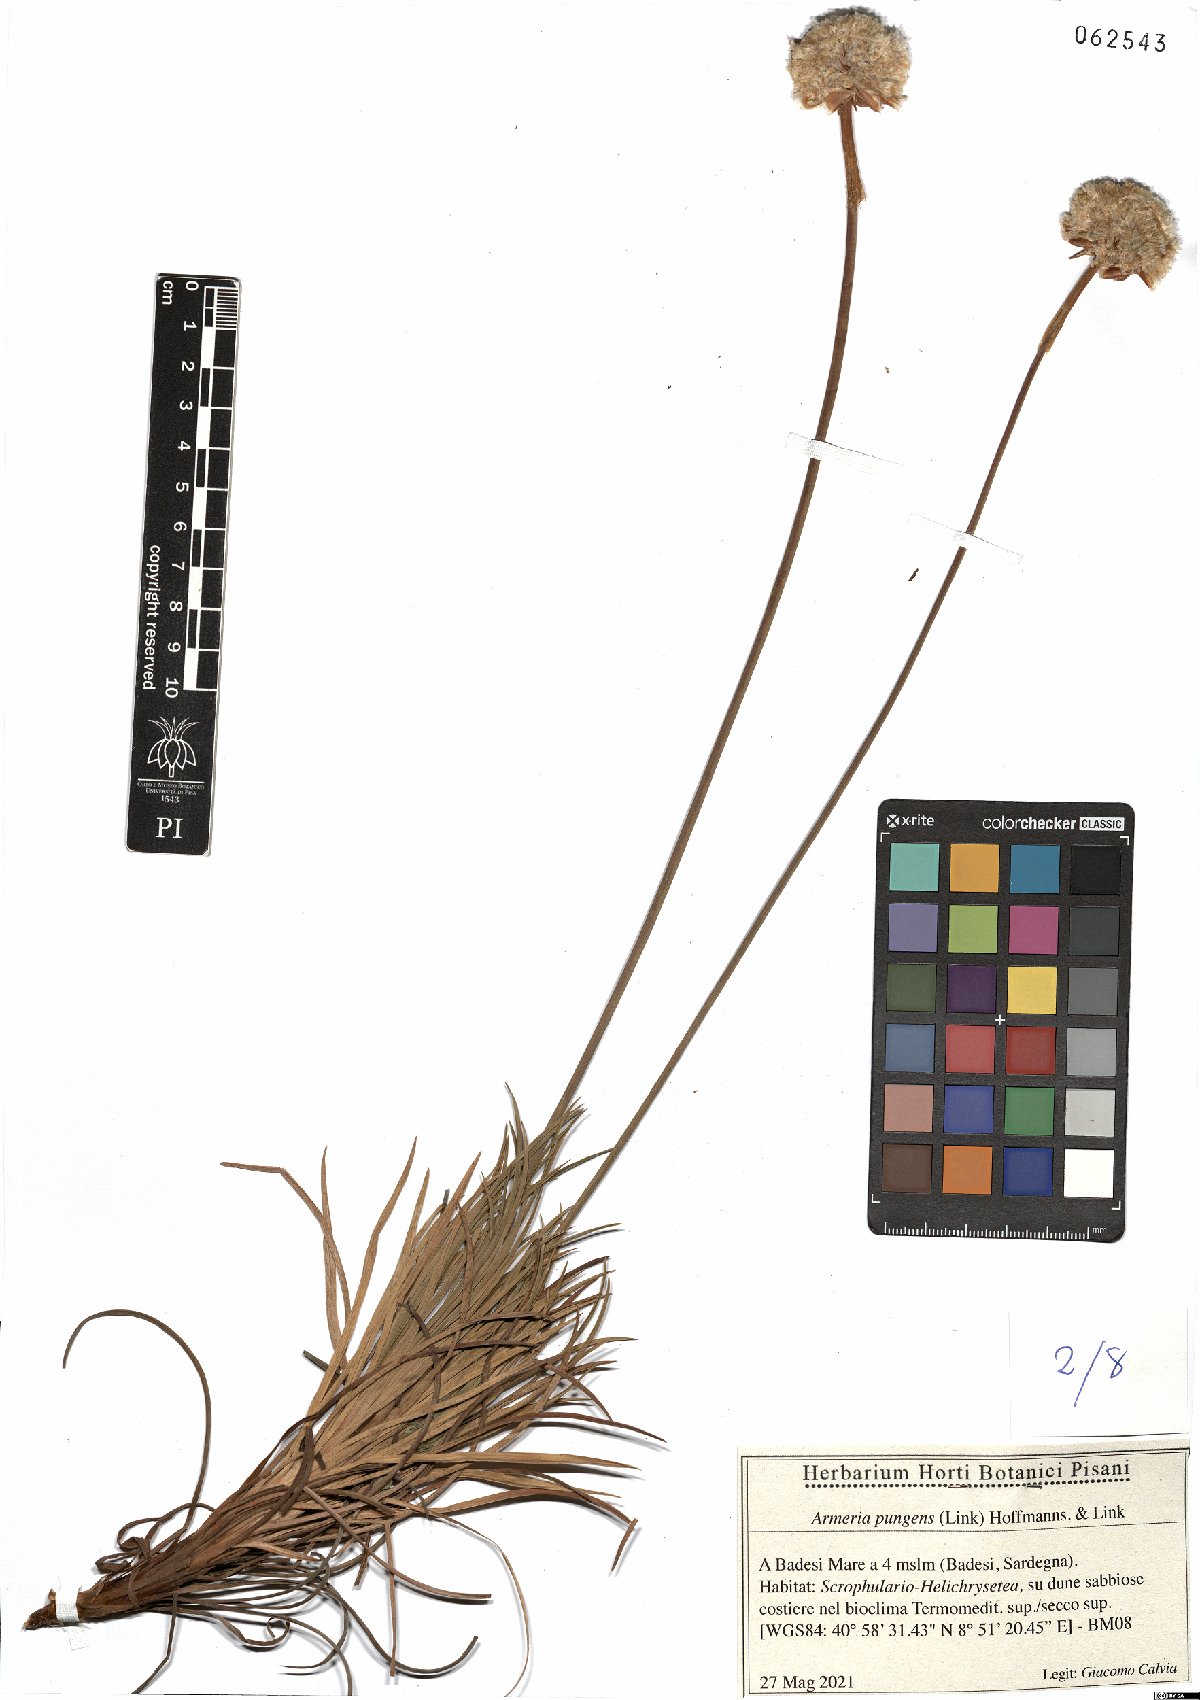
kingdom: Plantae
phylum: Tracheophyta
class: Magnoliopsida
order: Caryophyllales
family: Plumbaginaceae
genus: Armeria
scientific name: Armeria pungens
